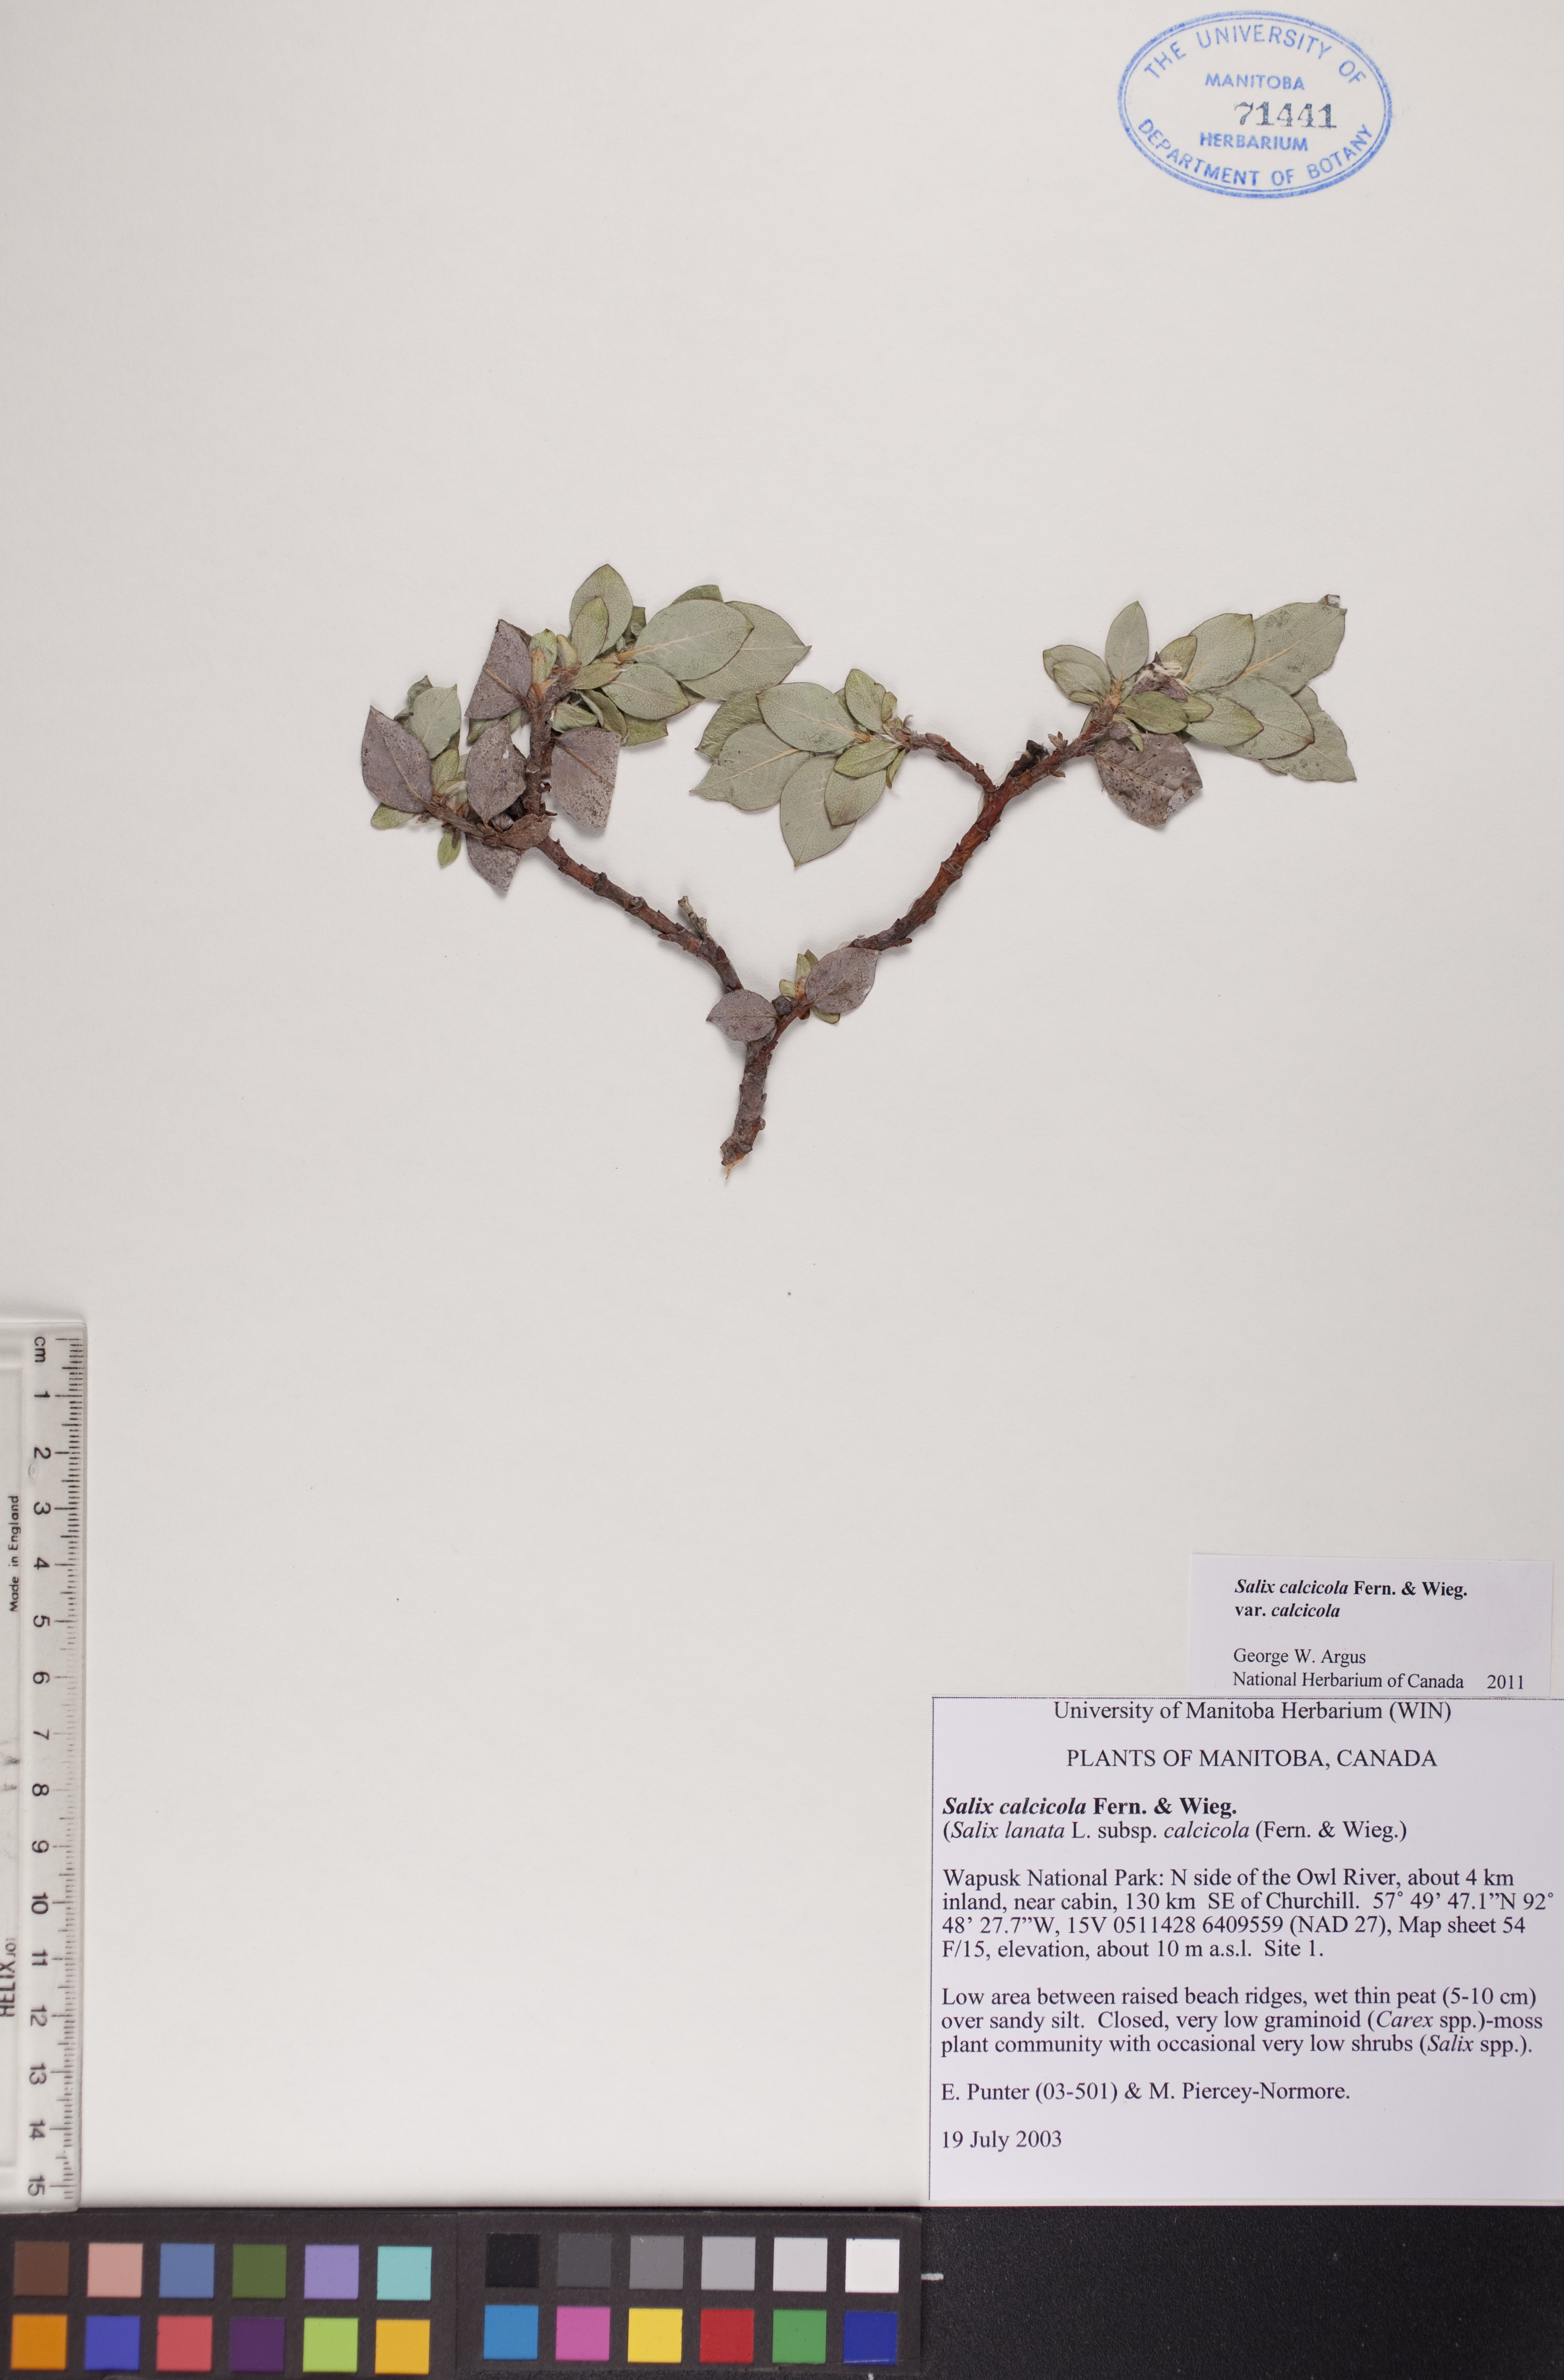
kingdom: Plantae
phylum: Tracheophyta
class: Magnoliopsida
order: Malpighiales
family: Salicaceae
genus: Salix
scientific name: Salix calcicola
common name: Calcareous willow
